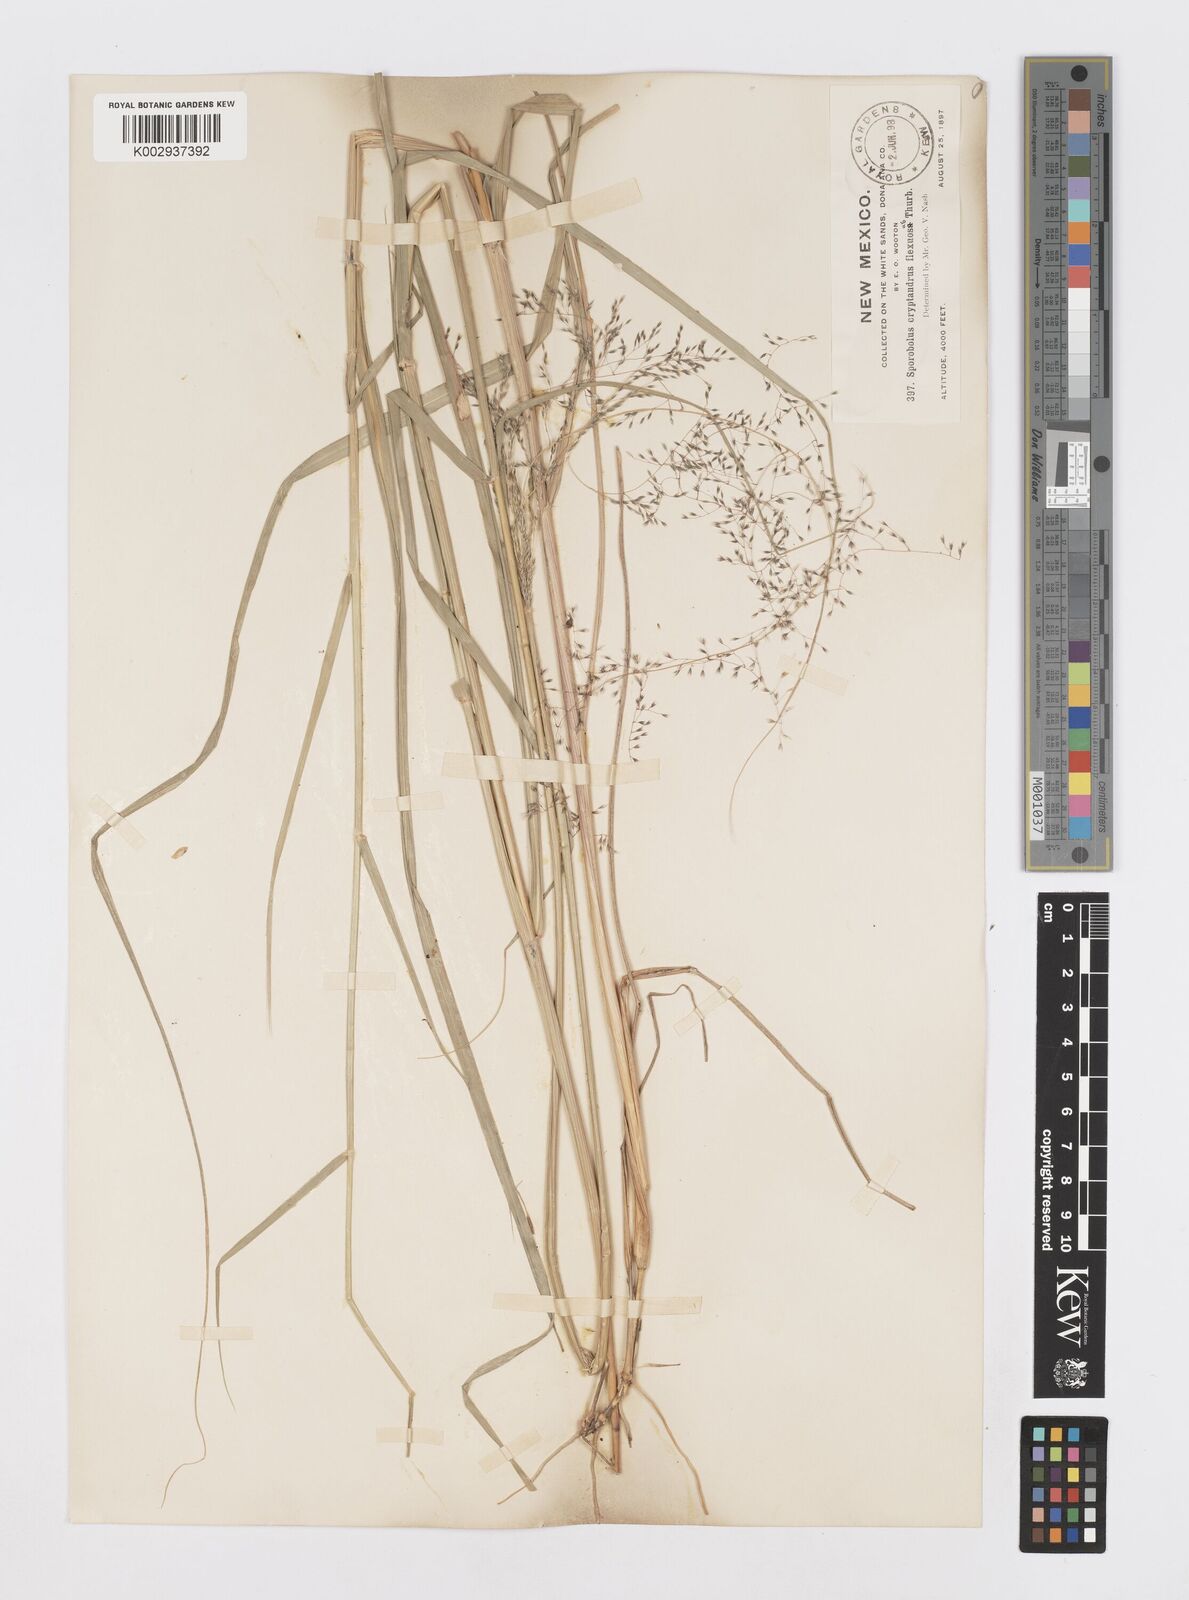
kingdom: Plantae
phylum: Tracheophyta
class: Liliopsida
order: Poales
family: Poaceae
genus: Sporobolus
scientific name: Sporobolus cryptandrus
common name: Sand dropseed
